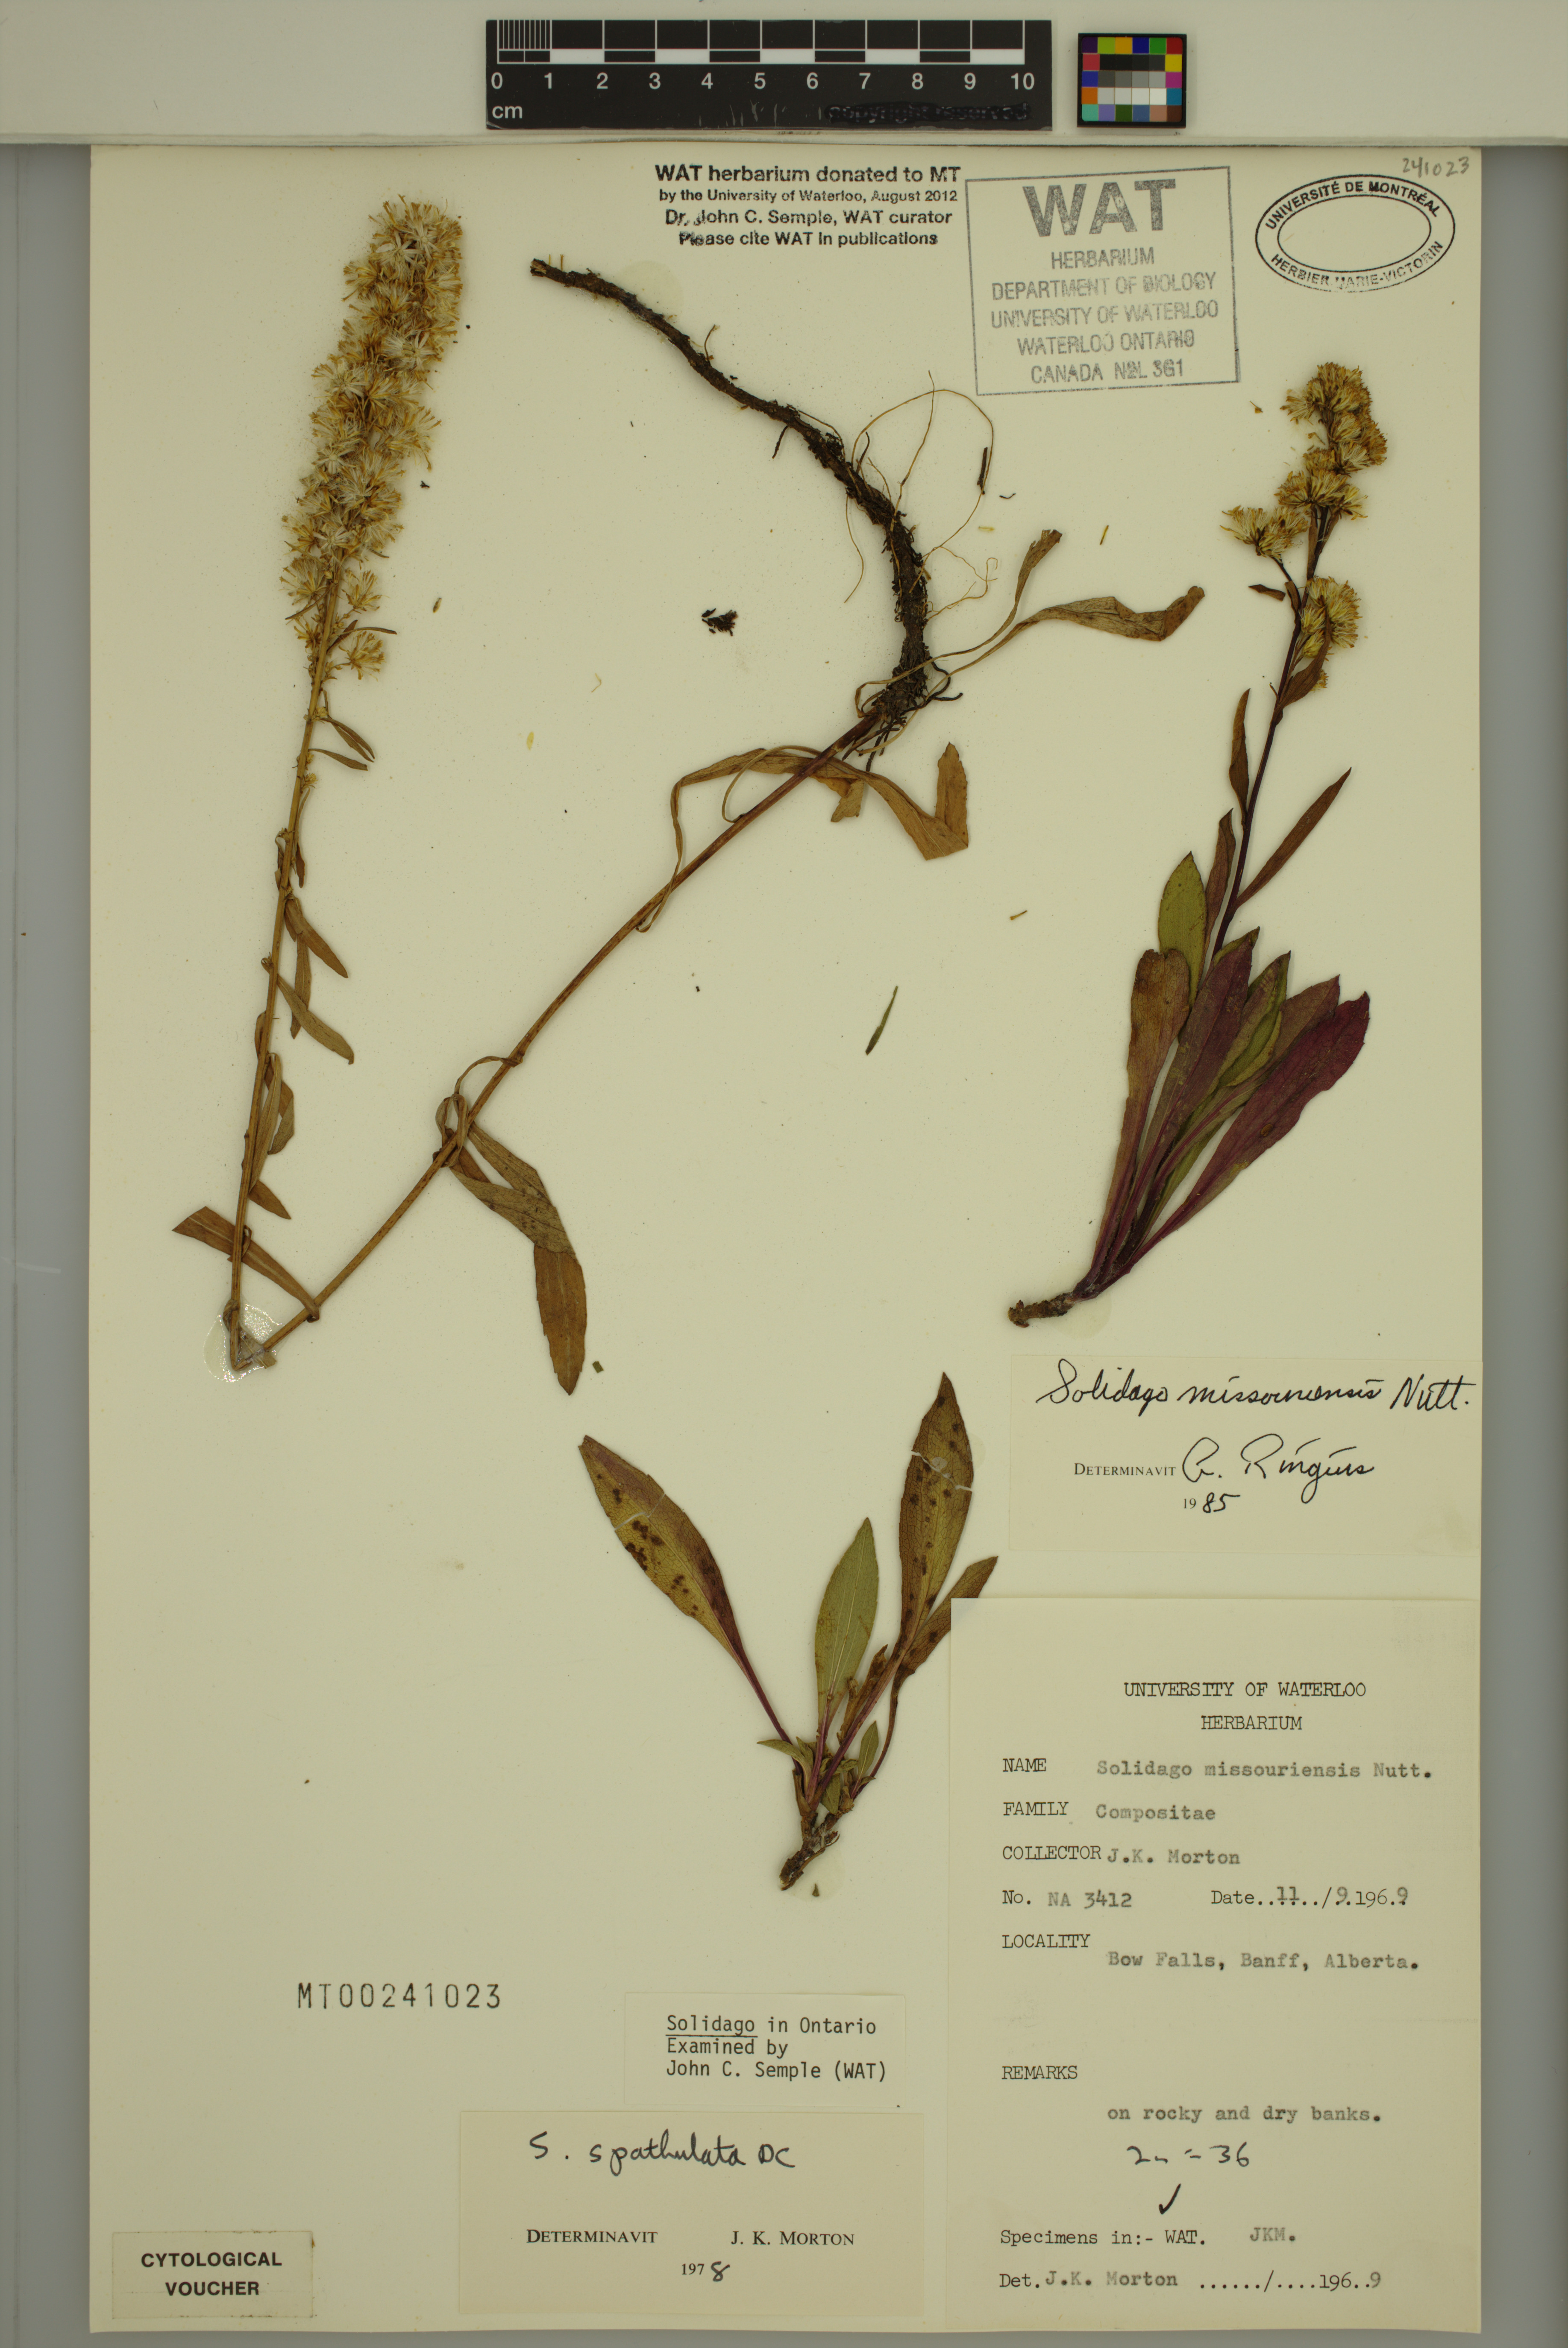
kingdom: Plantae
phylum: Tracheophyta
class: Magnoliopsida
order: Asterales
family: Asteraceae
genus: Solidago
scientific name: Solidago missouriensis
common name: Prairie goldenrod
